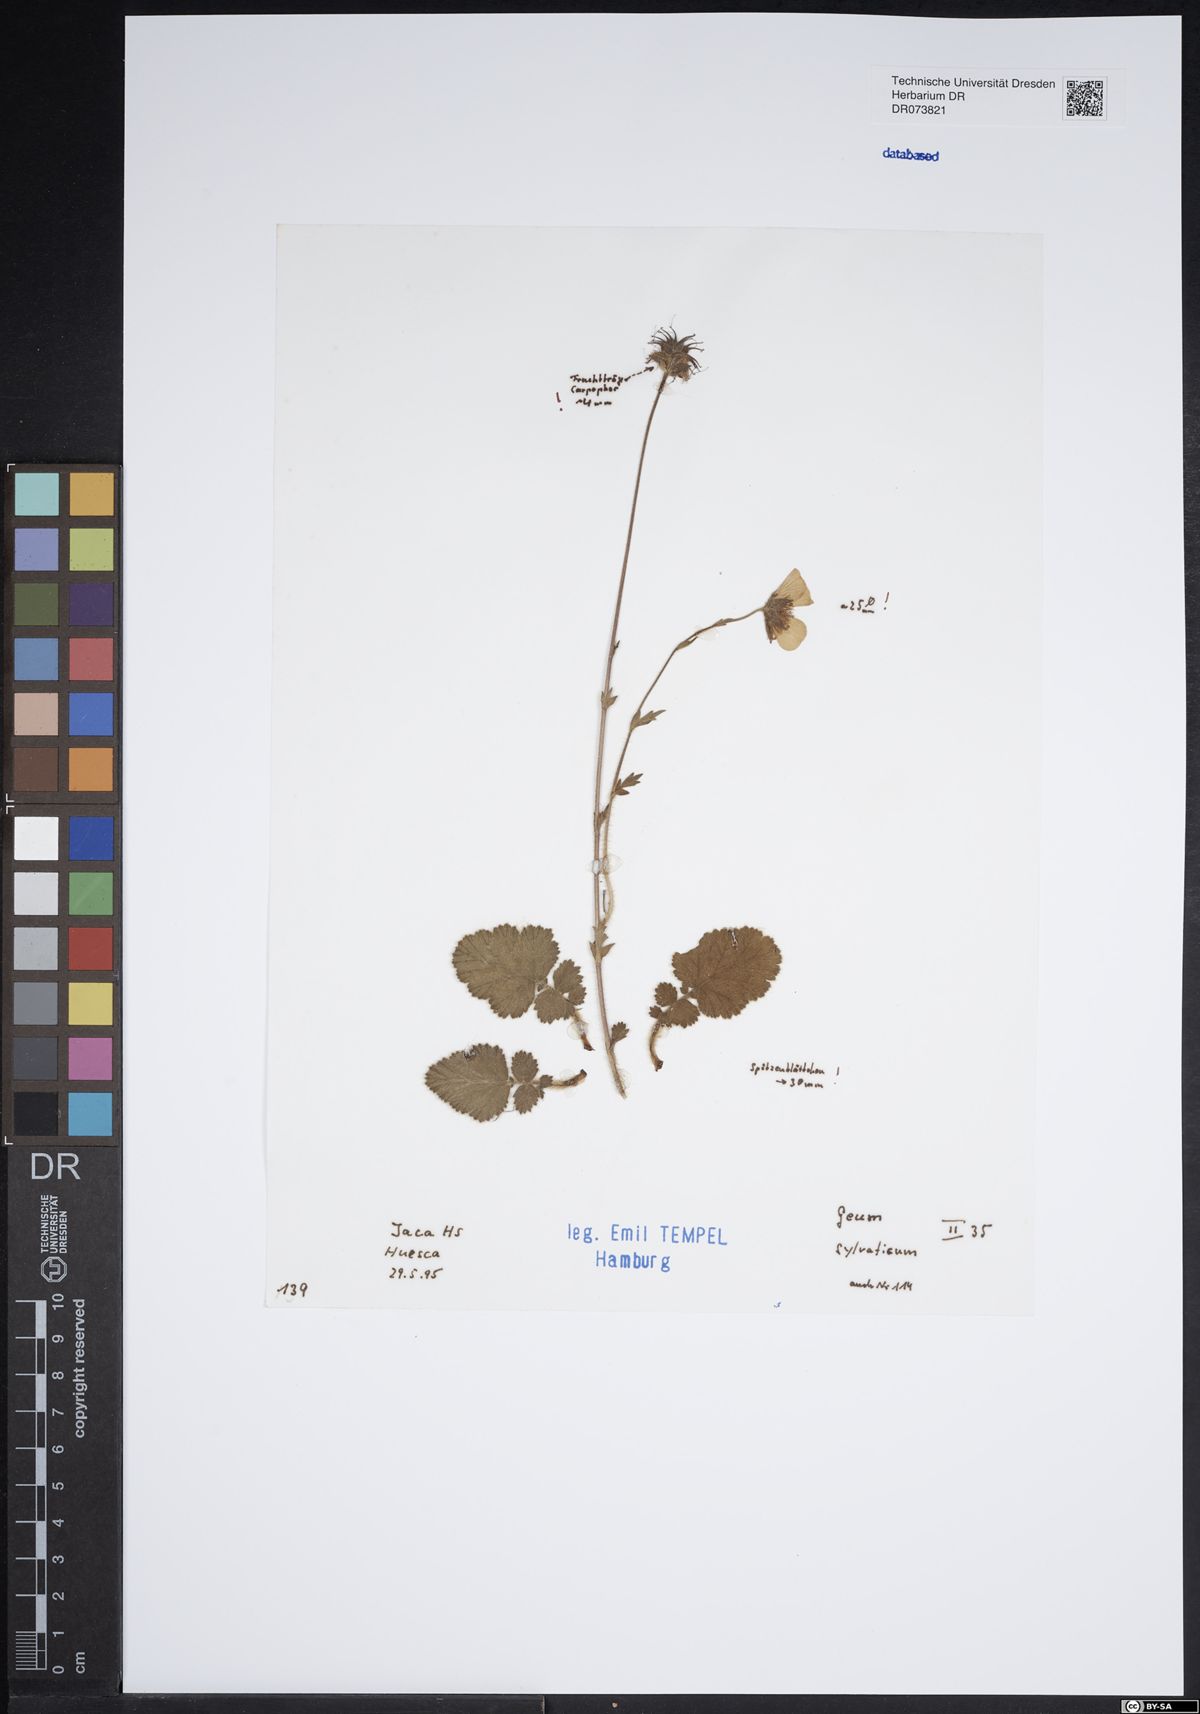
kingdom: Plantae
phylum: Tracheophyta
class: Magnoliopsida
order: Rosales
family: Rosaceae
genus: Geum
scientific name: Geum sylvaticum
